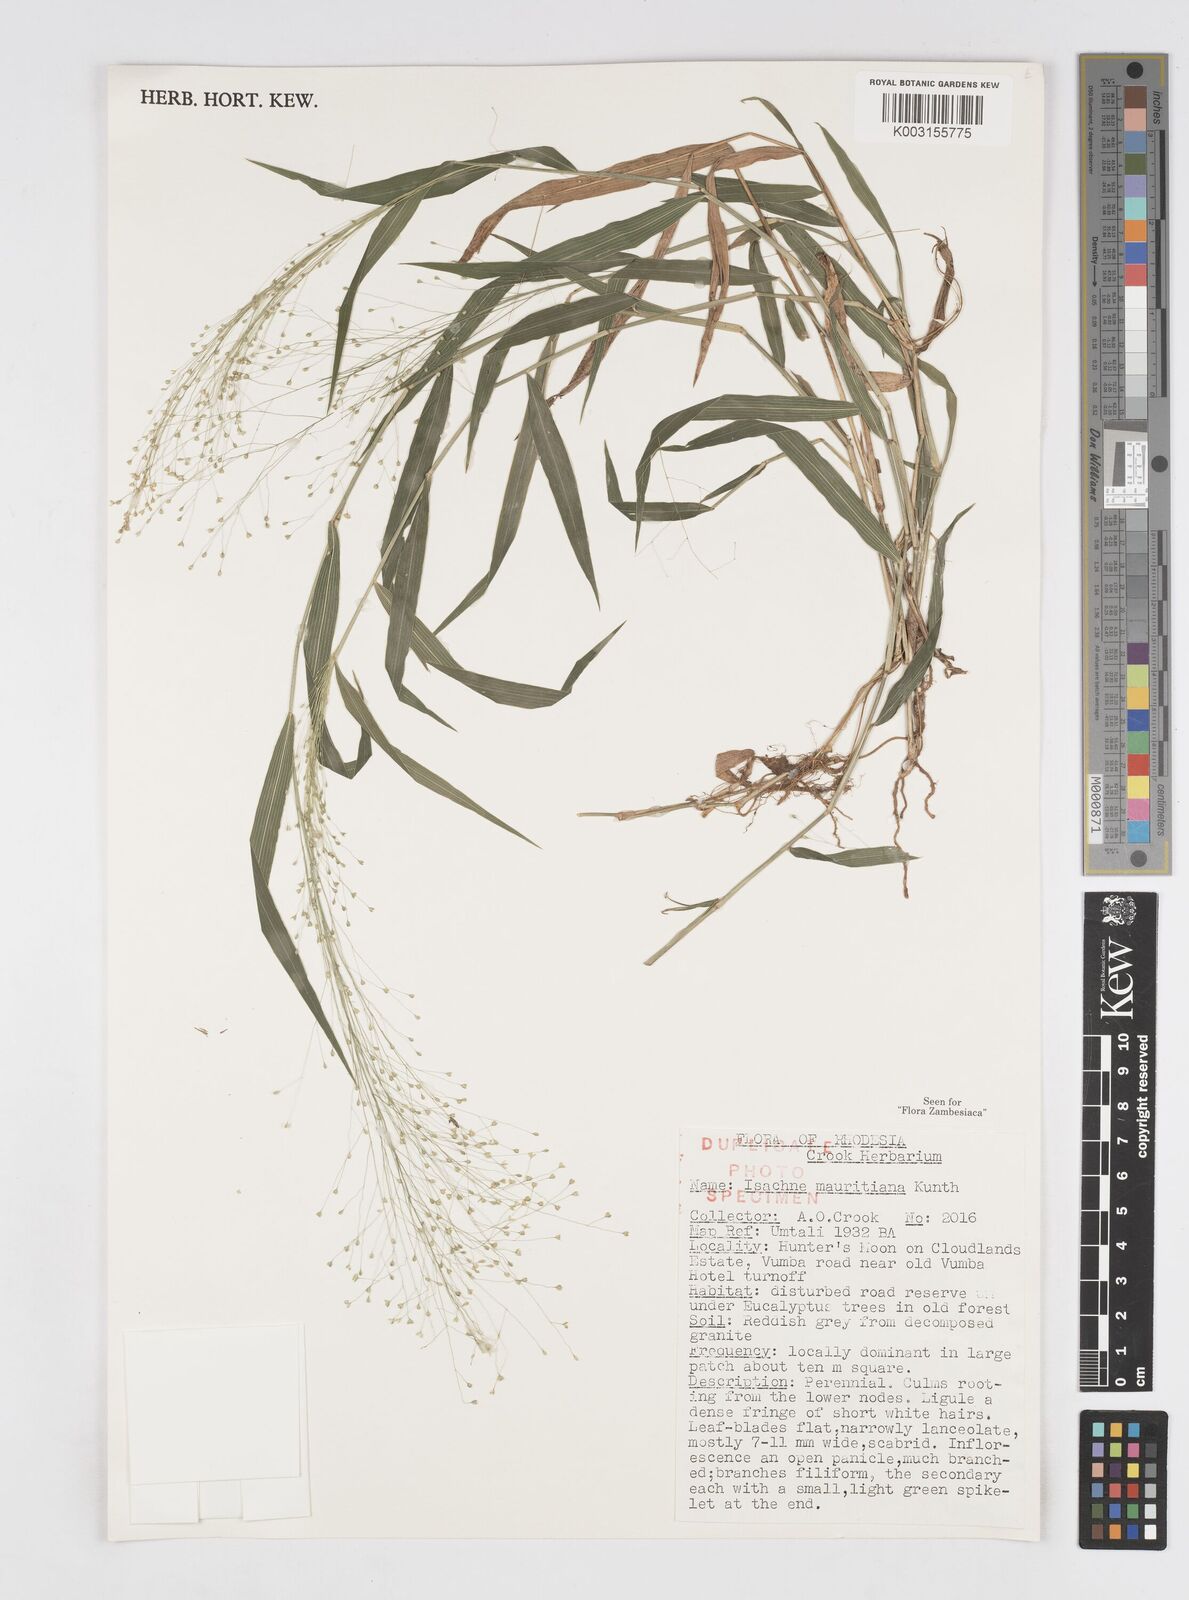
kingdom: Plantae
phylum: Tracheophyta
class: Liliopsida
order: Poales
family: Poaceae
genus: Isachne
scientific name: Isachne mauritiana
